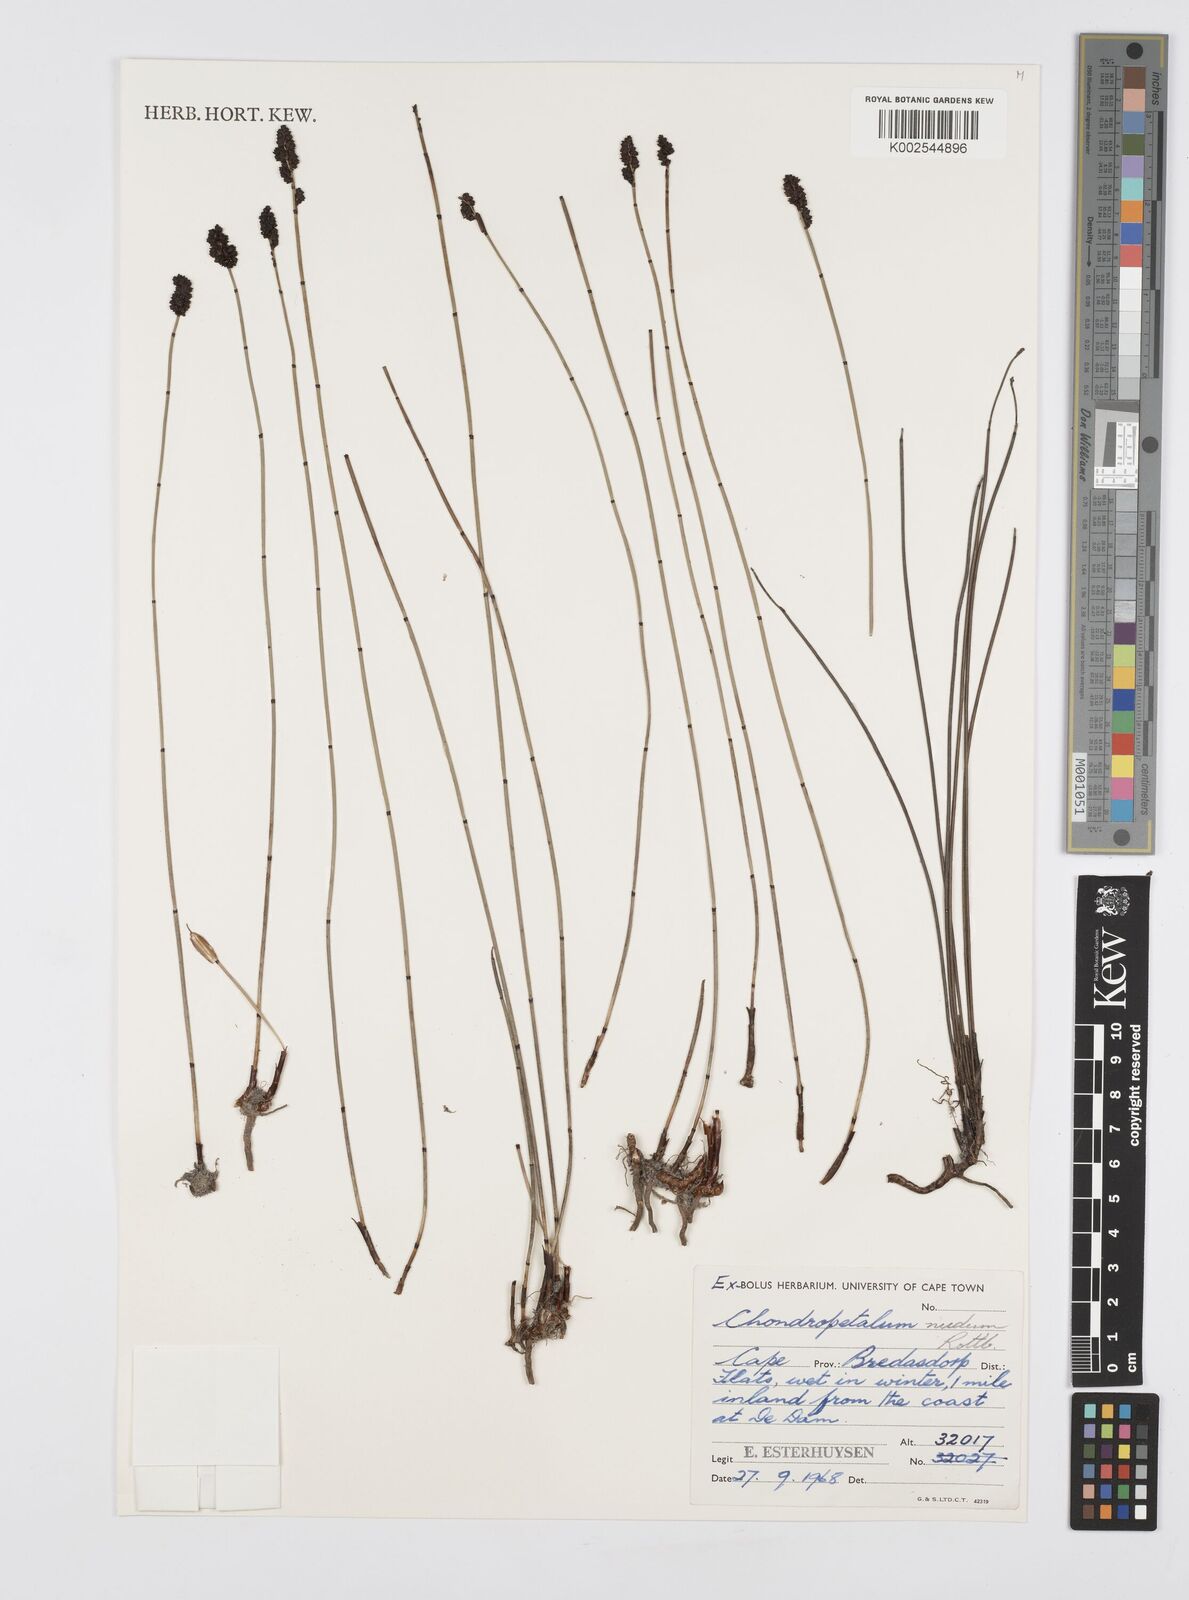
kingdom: Plantae
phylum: Tracheophyta
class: Liliopsida
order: Poales
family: Restionaceae
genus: Elegia
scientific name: Elegia nuda
